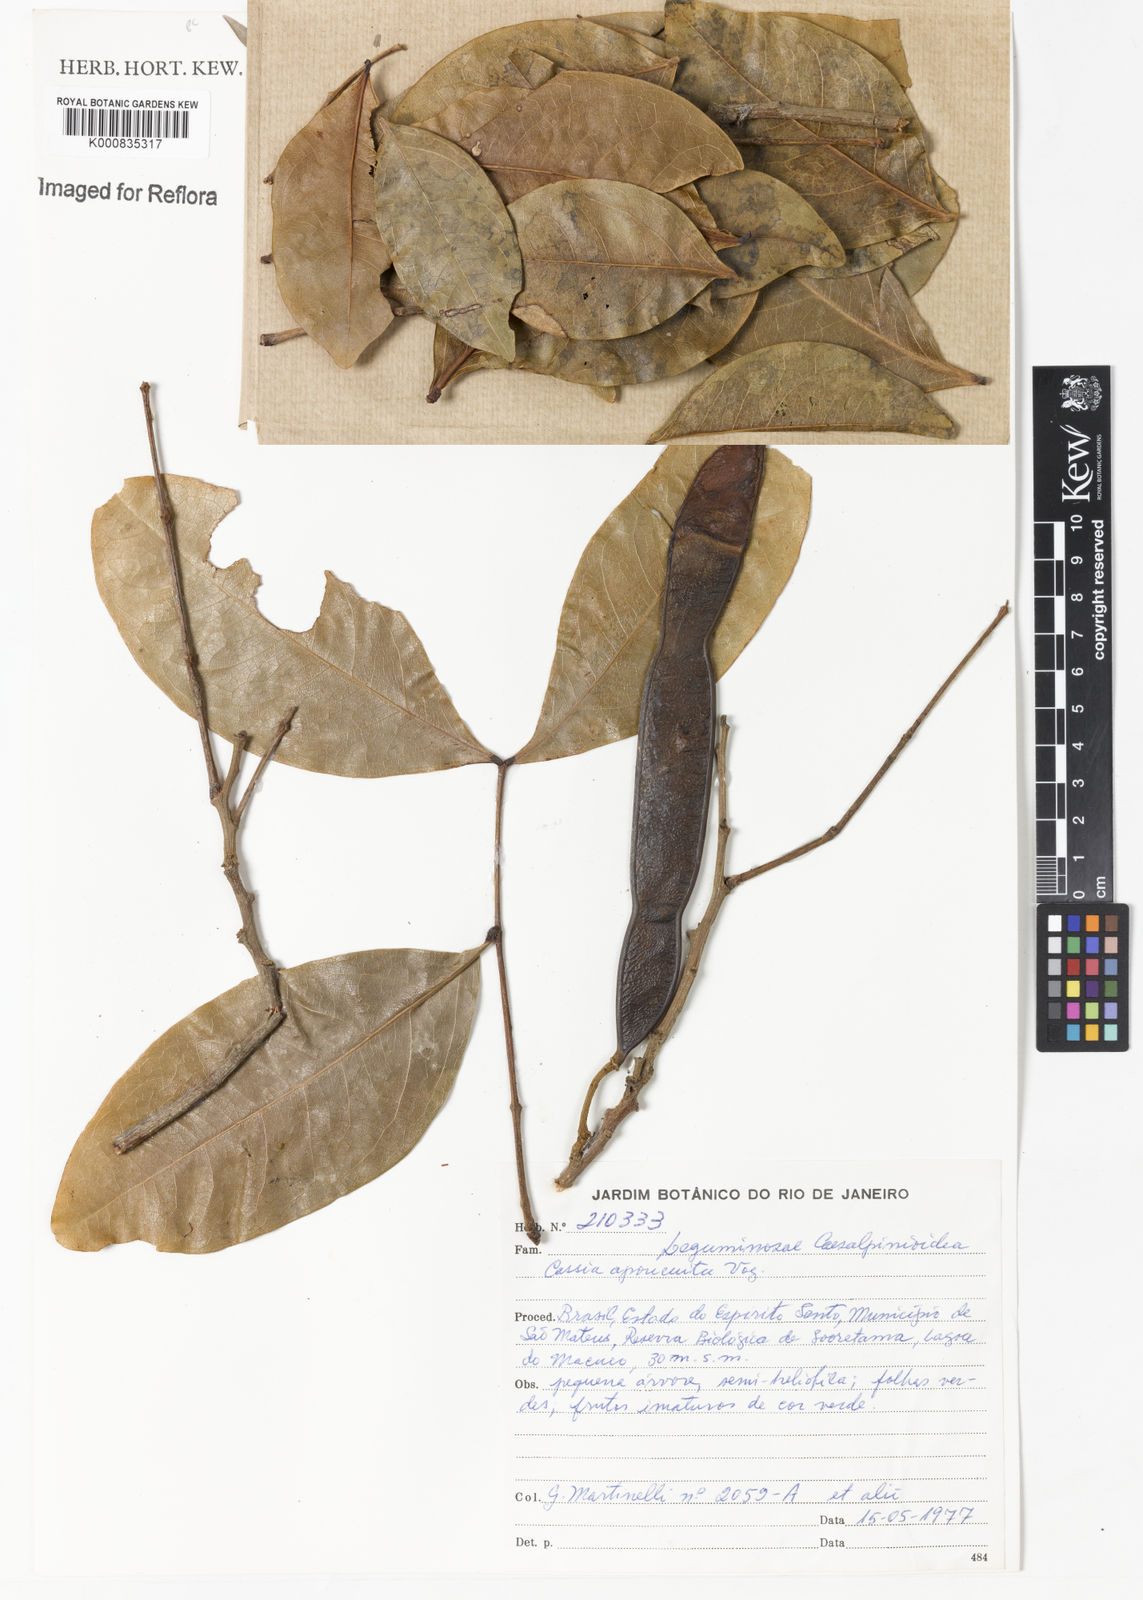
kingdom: Plantae
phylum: Tracheophyta
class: Magnoliopsida
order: Fabales
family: Fabaceae
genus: Chamaecrista
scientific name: Chamaecrista apoucouita
